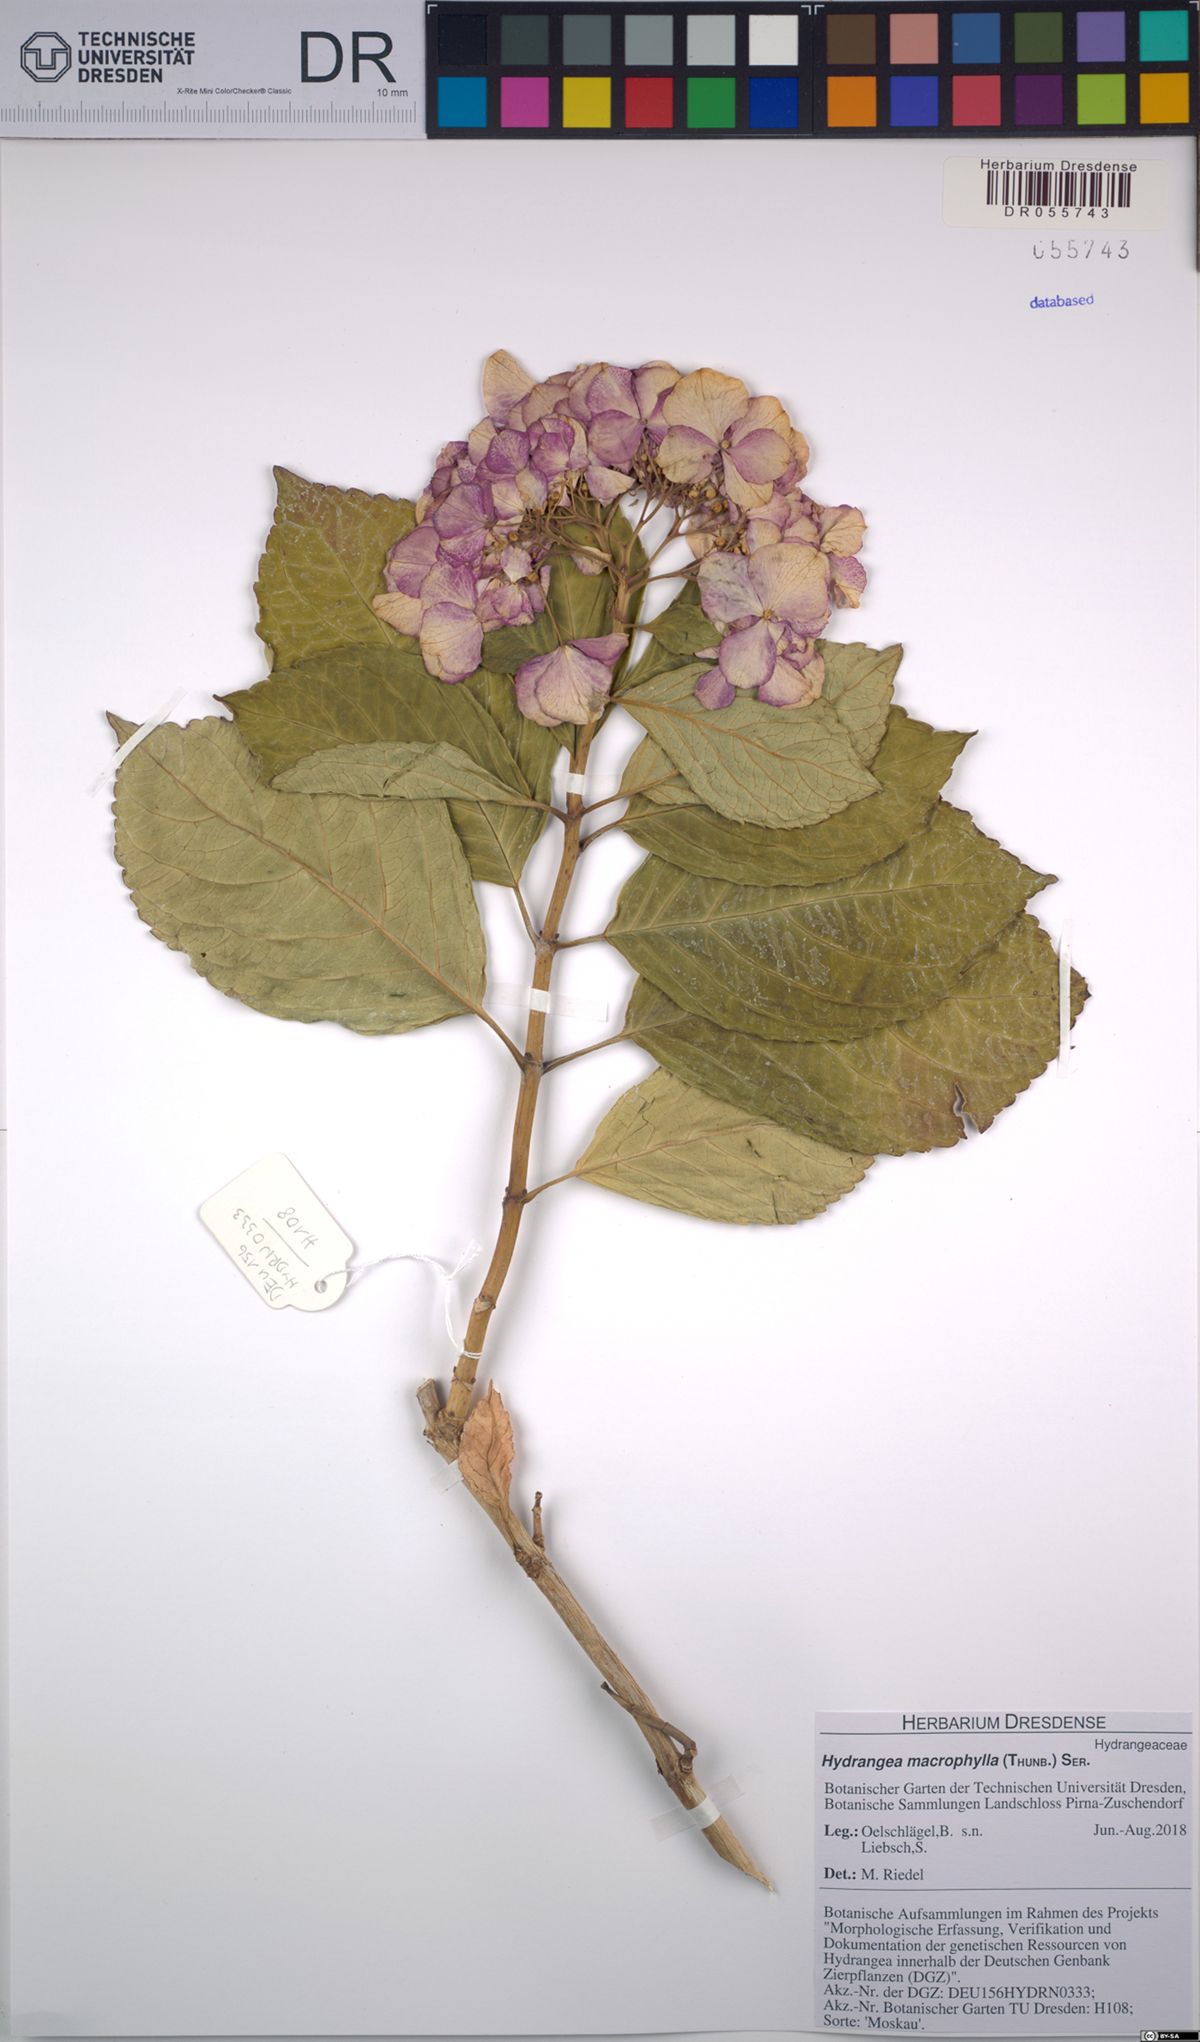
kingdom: Plantae
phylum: Tracheophyta
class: Magnoliopsida
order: Cornales
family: Hydrangeaceae
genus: Hydrangea
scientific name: Hydrangea macrophylla
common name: Hydrangea
